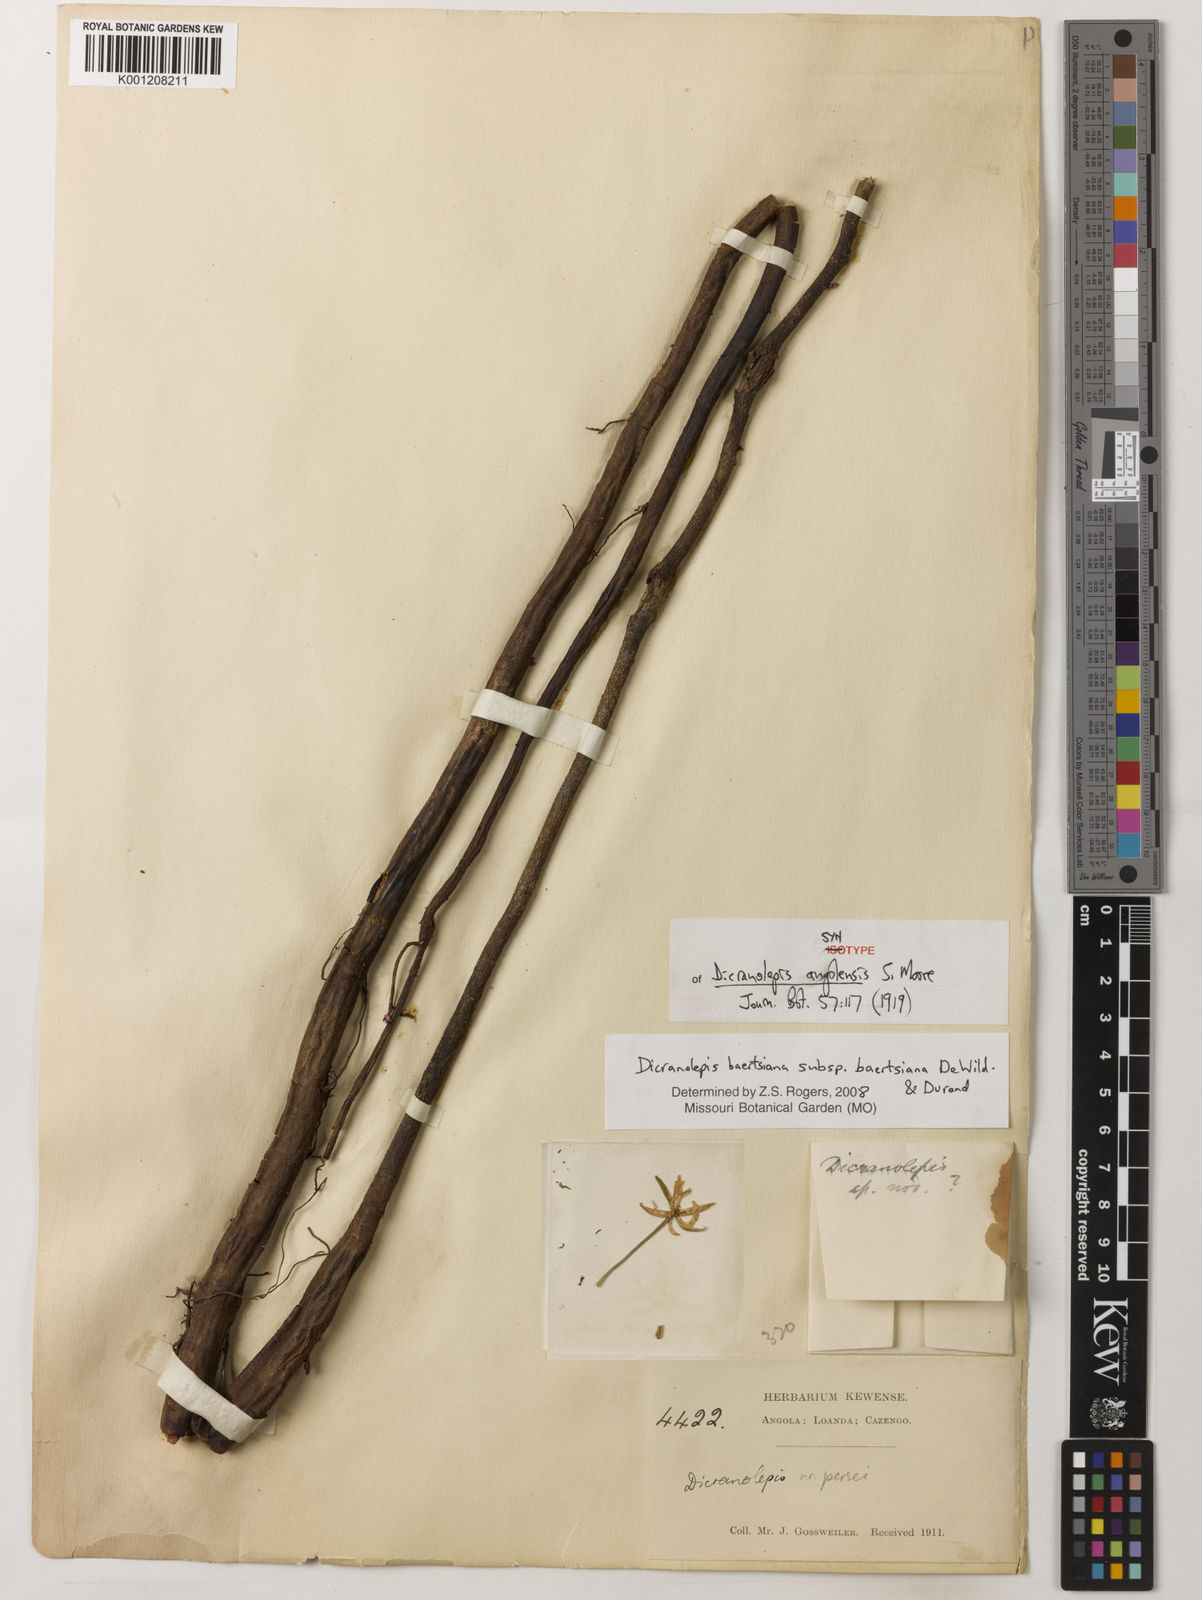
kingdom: Plantae
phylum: Tracheophyta
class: Magnoliopsida
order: Malvales
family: Thymelaeaceae
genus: Dicranolepis
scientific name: Dicranolepis
